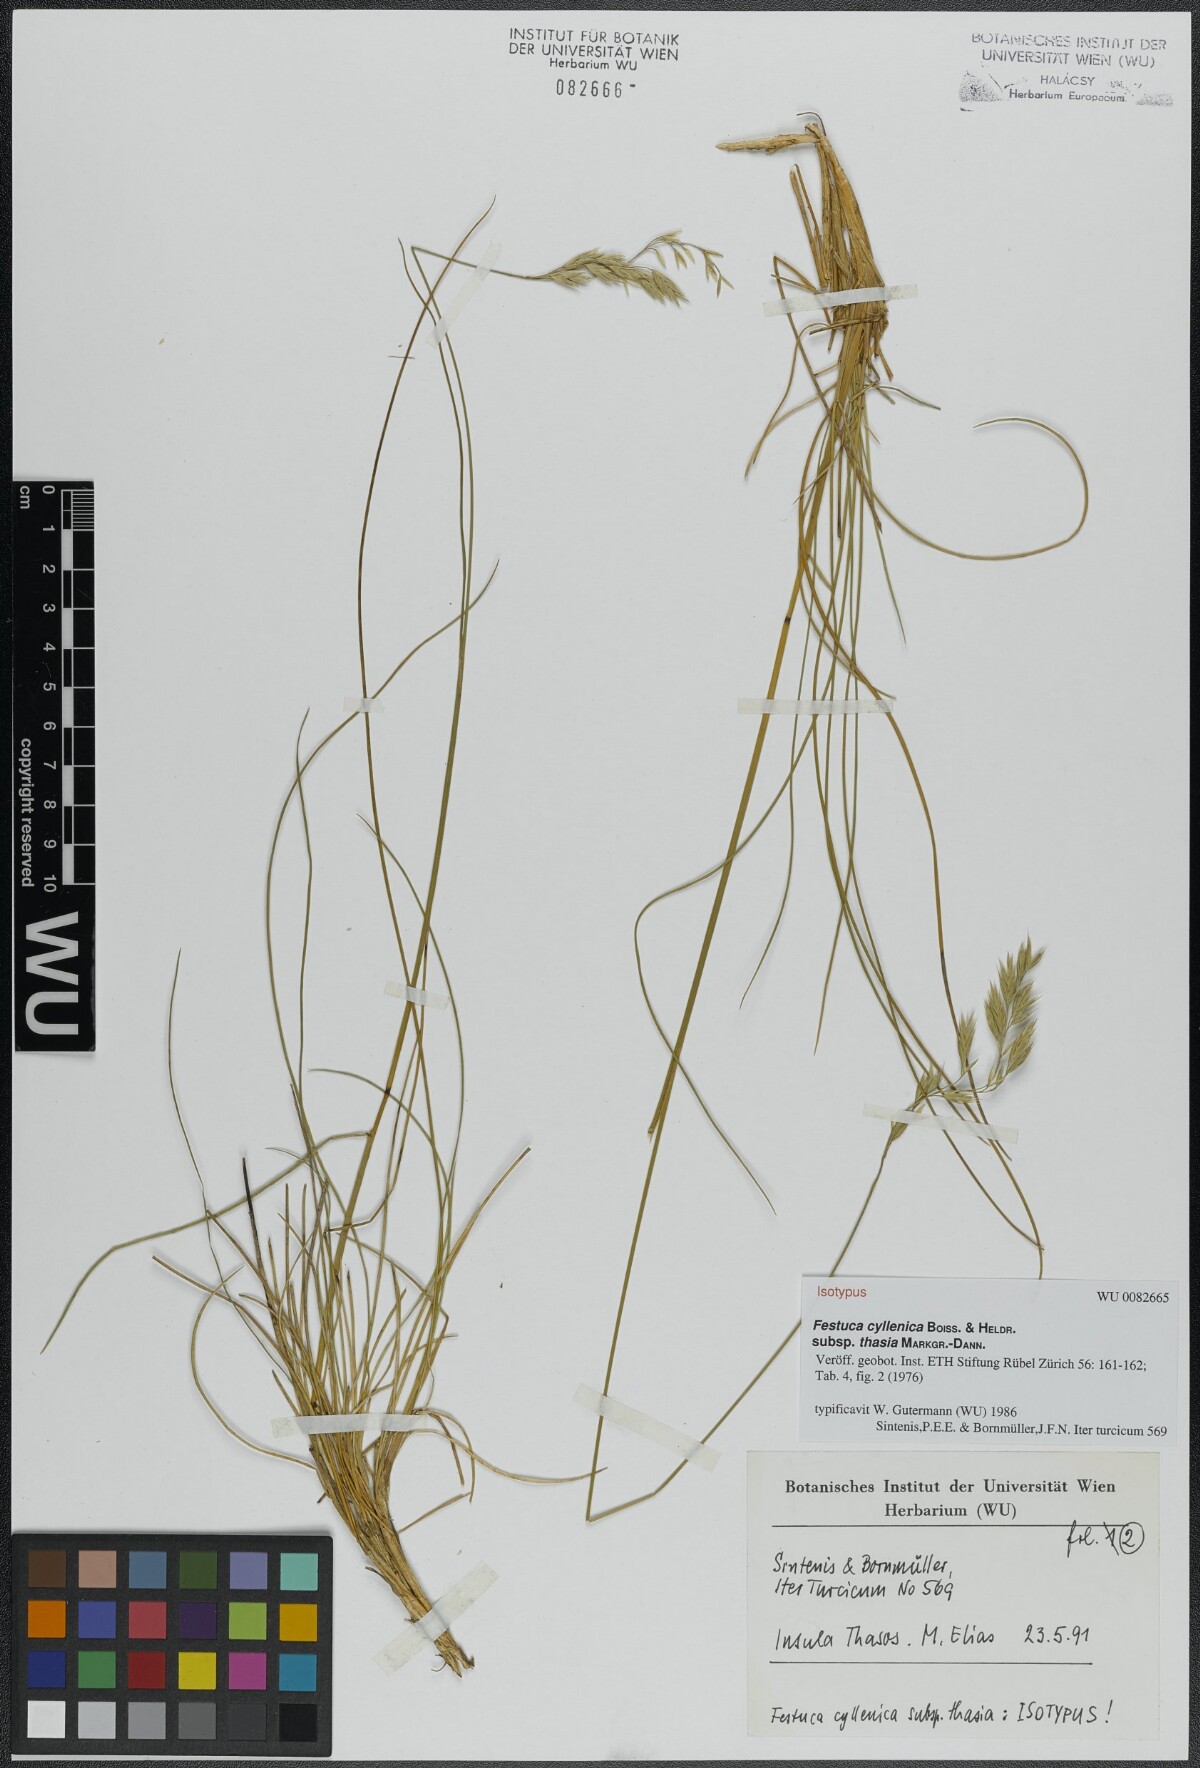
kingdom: Plantae
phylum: Tracheophyta
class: Liliopsida
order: Poales
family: Poaceae
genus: Festuca
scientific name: Festuca cyllenica
